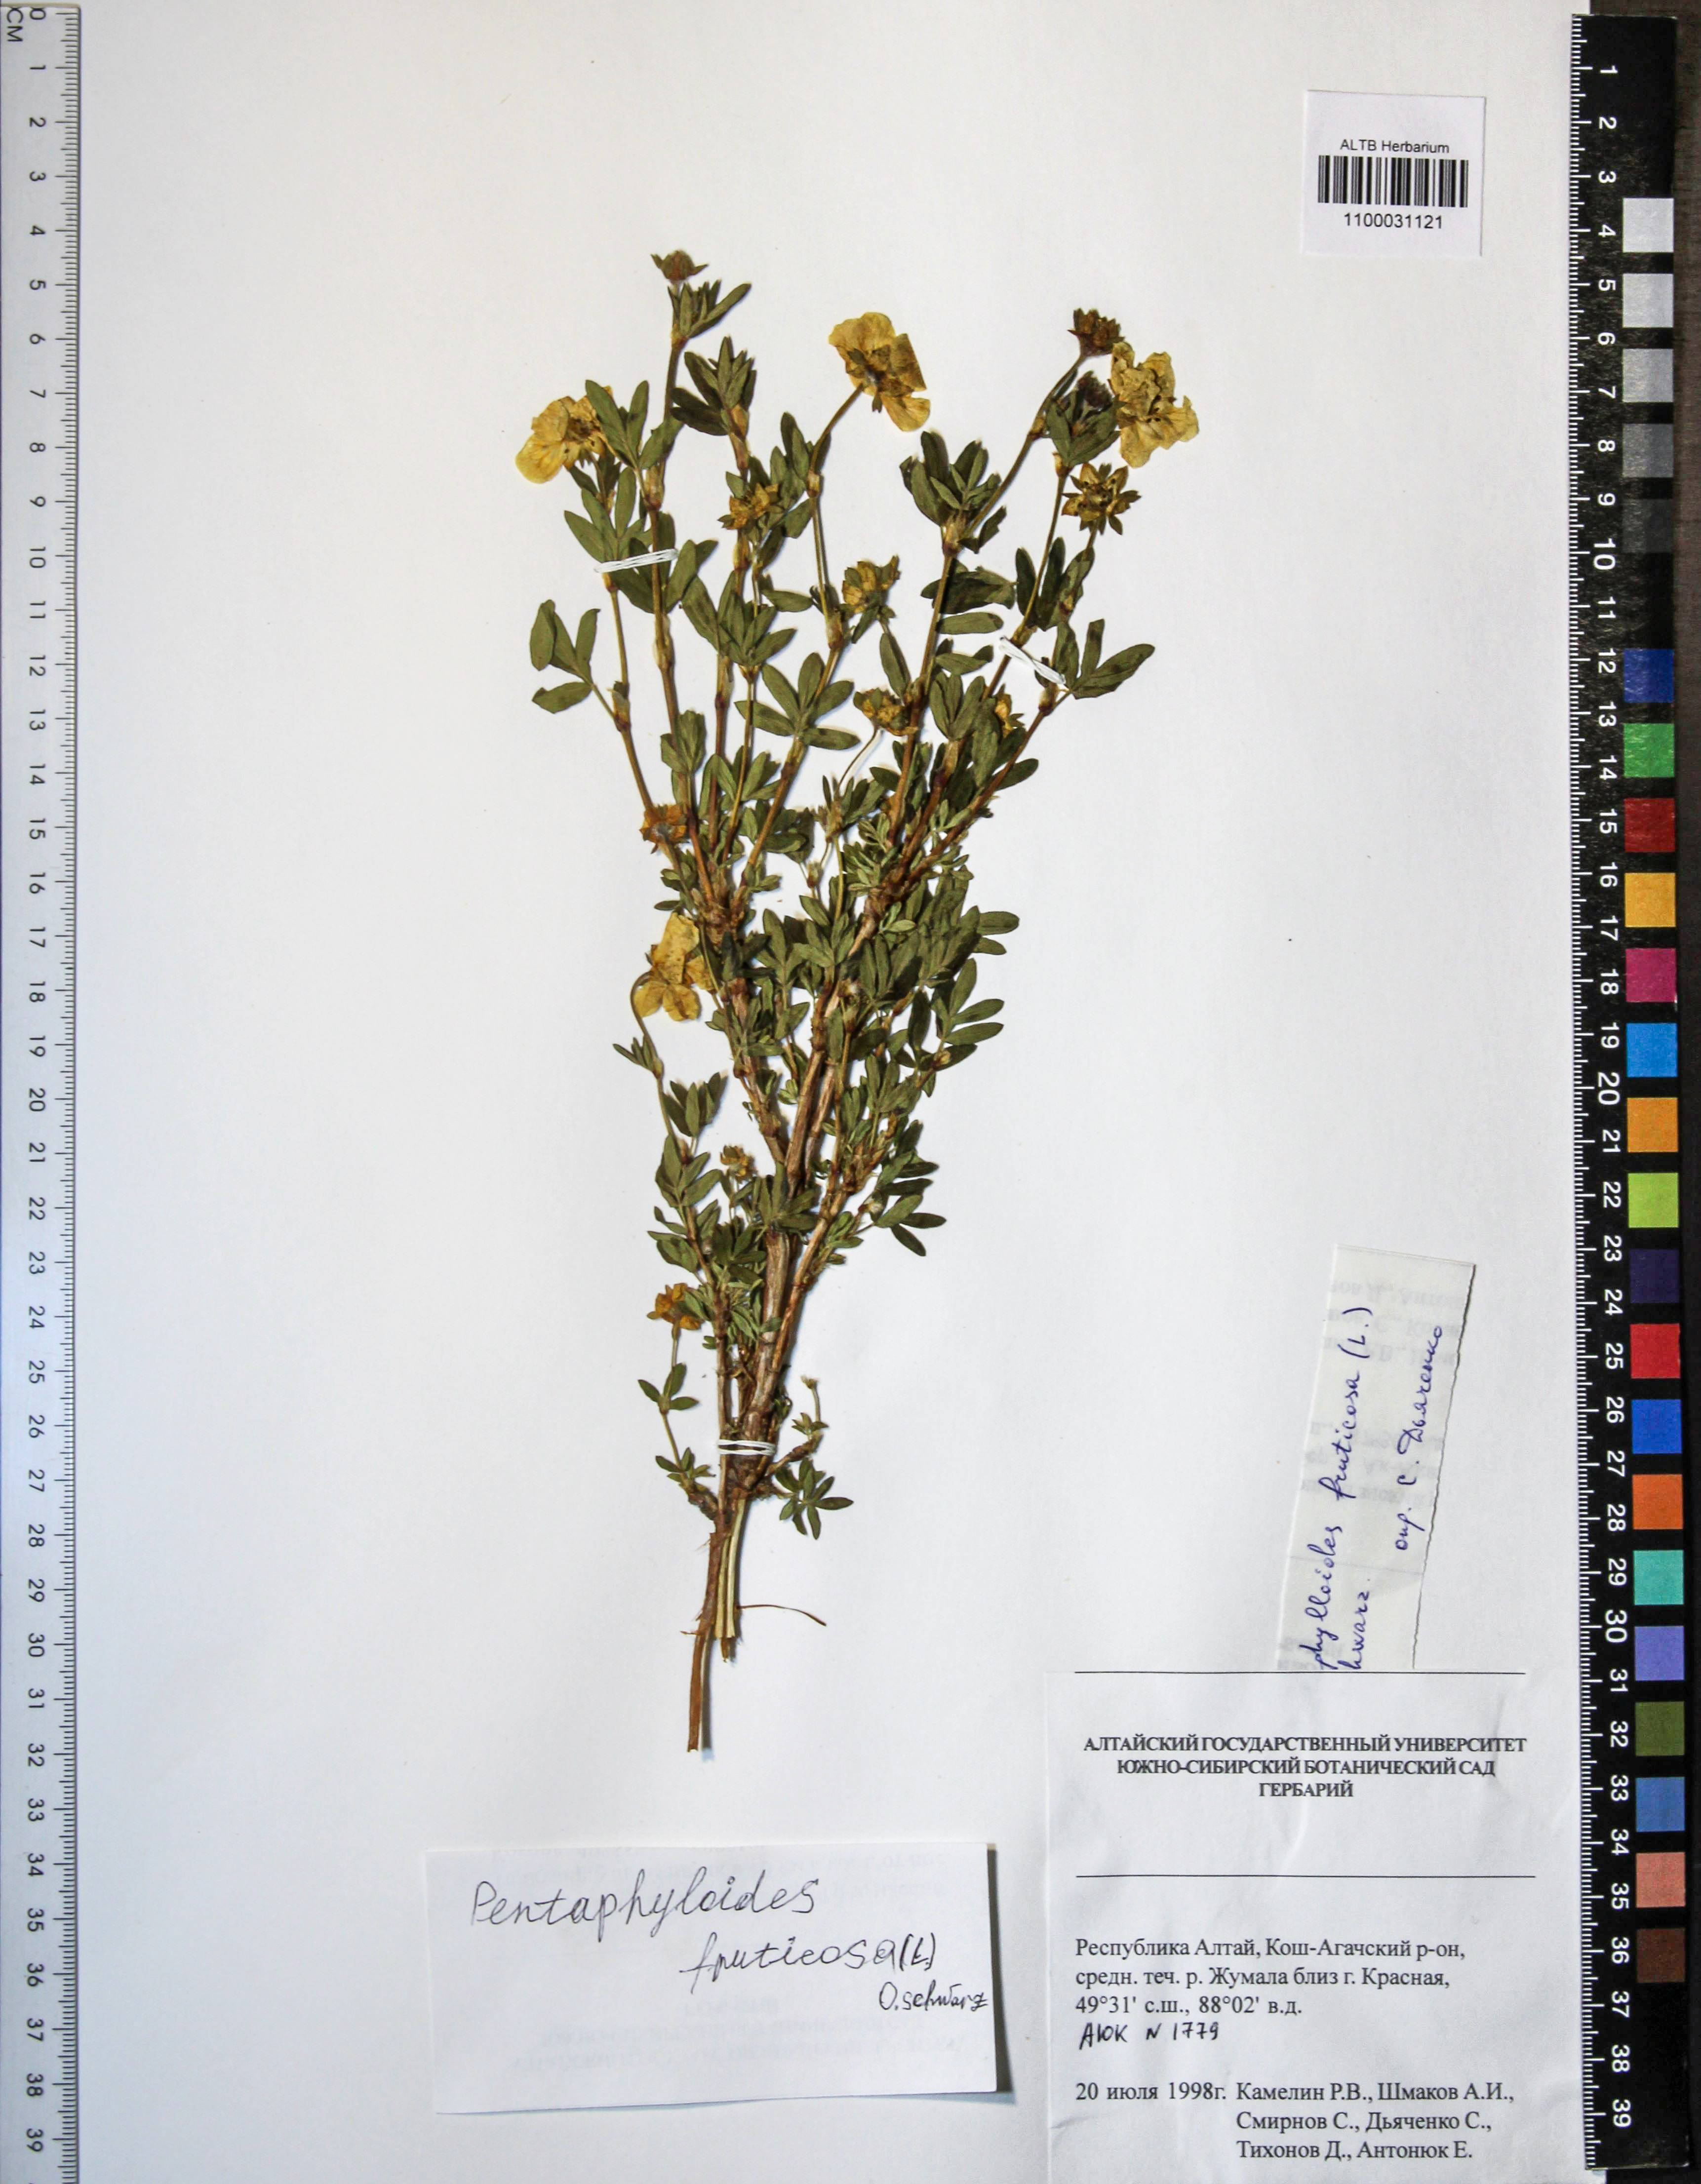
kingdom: Plantae
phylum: Tracheophyta
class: Magnoliopsida
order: Rosales
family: Rosaceae
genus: Dasiphora
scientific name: Dasiphora fruticosa
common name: Shrubby cinquefoil
